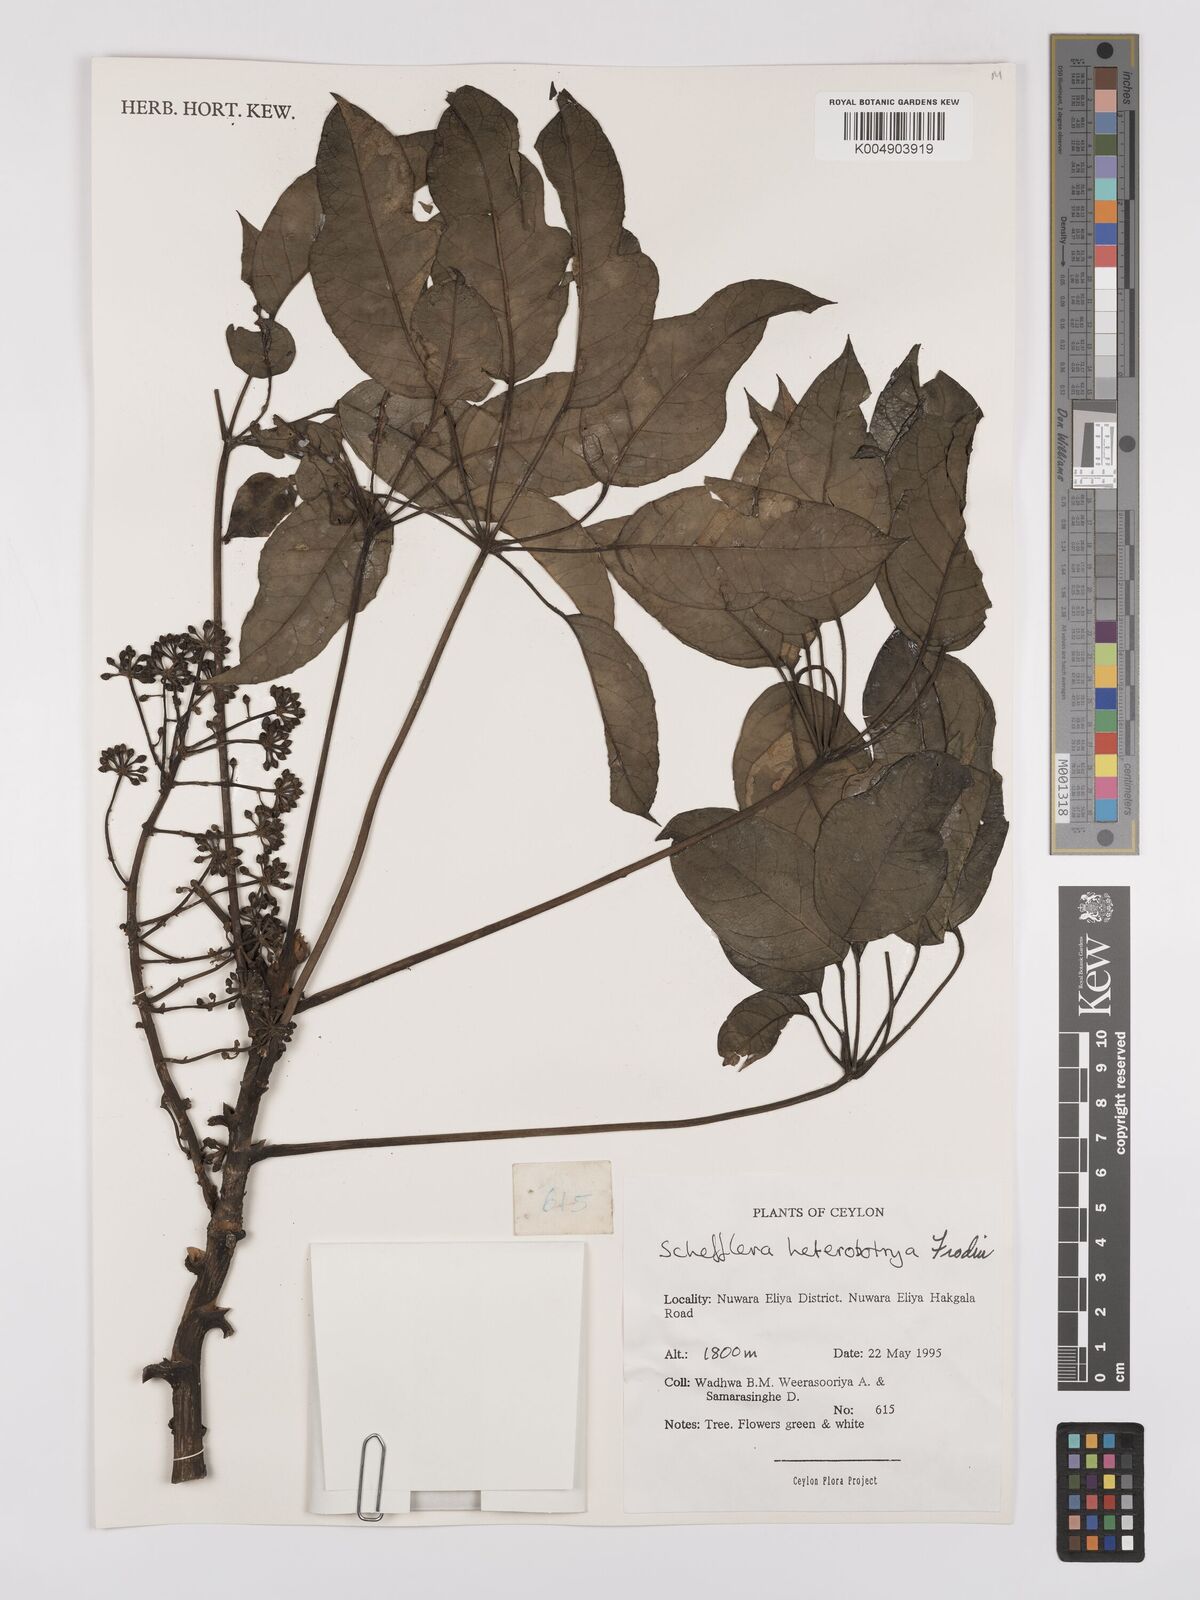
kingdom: Plantae
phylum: Tracheophyta
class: Magnoliopsida
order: Apiales
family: Araliaceae
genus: Heptapleurum
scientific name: Heptapleurum
